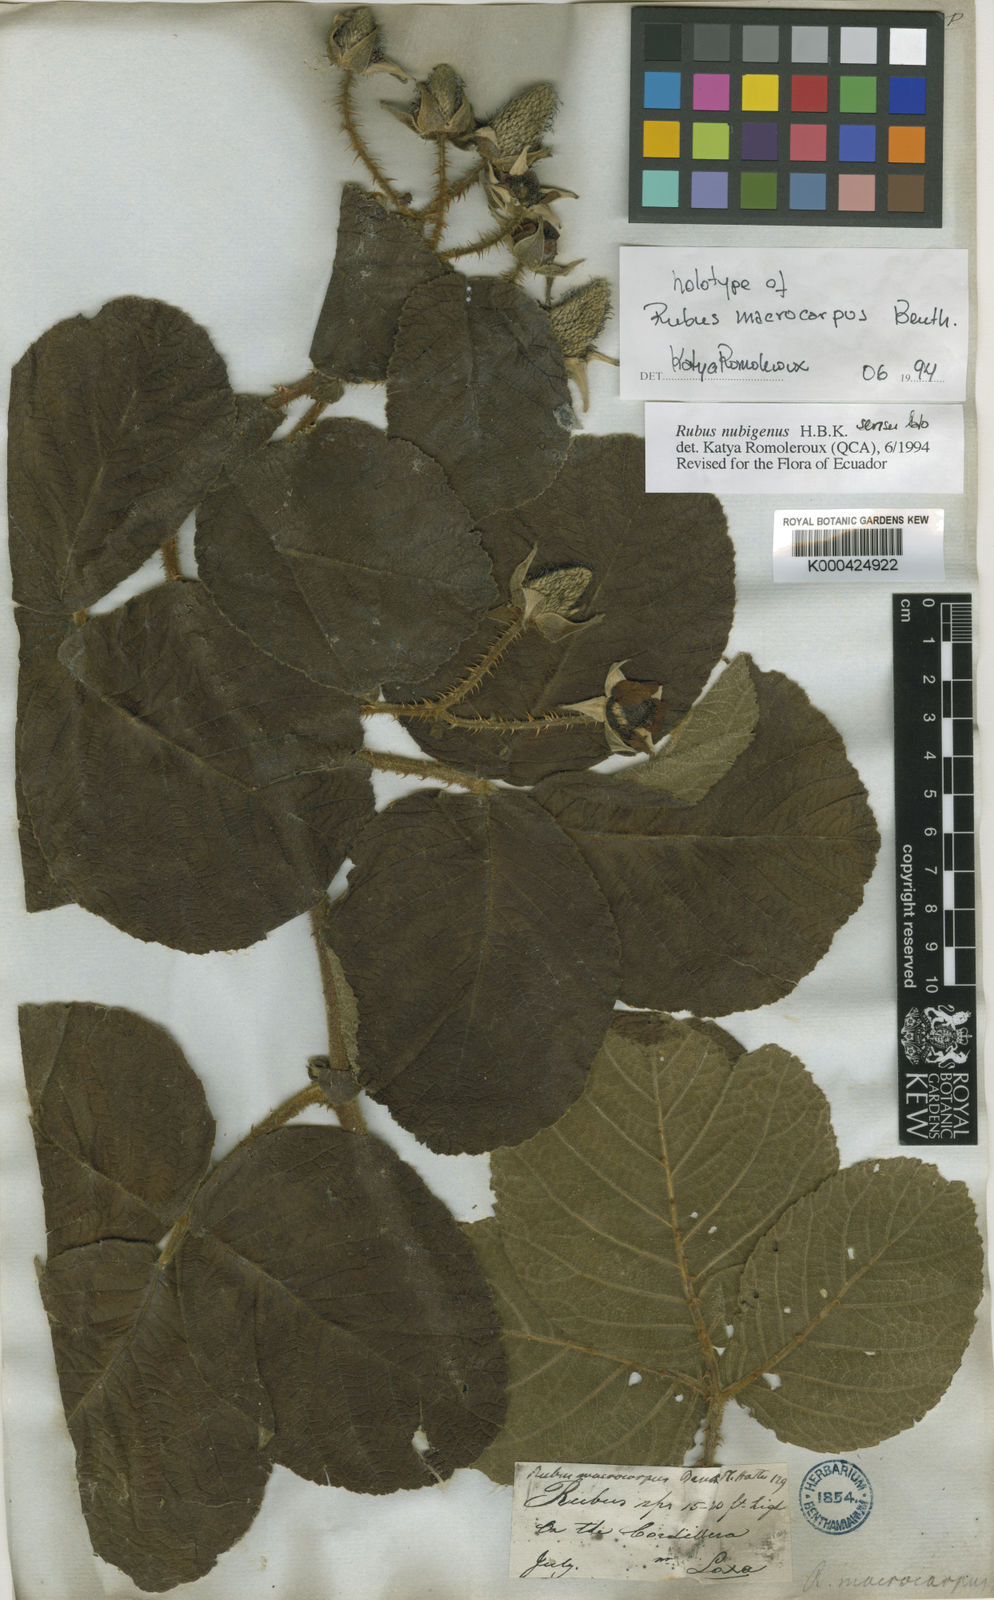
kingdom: Plantae
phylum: Tracheophyta
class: Magnoliopsida
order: Rosales
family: Rosaceae
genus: Rubus
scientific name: Rubus nubigenus
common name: Giant colombian blackberry
